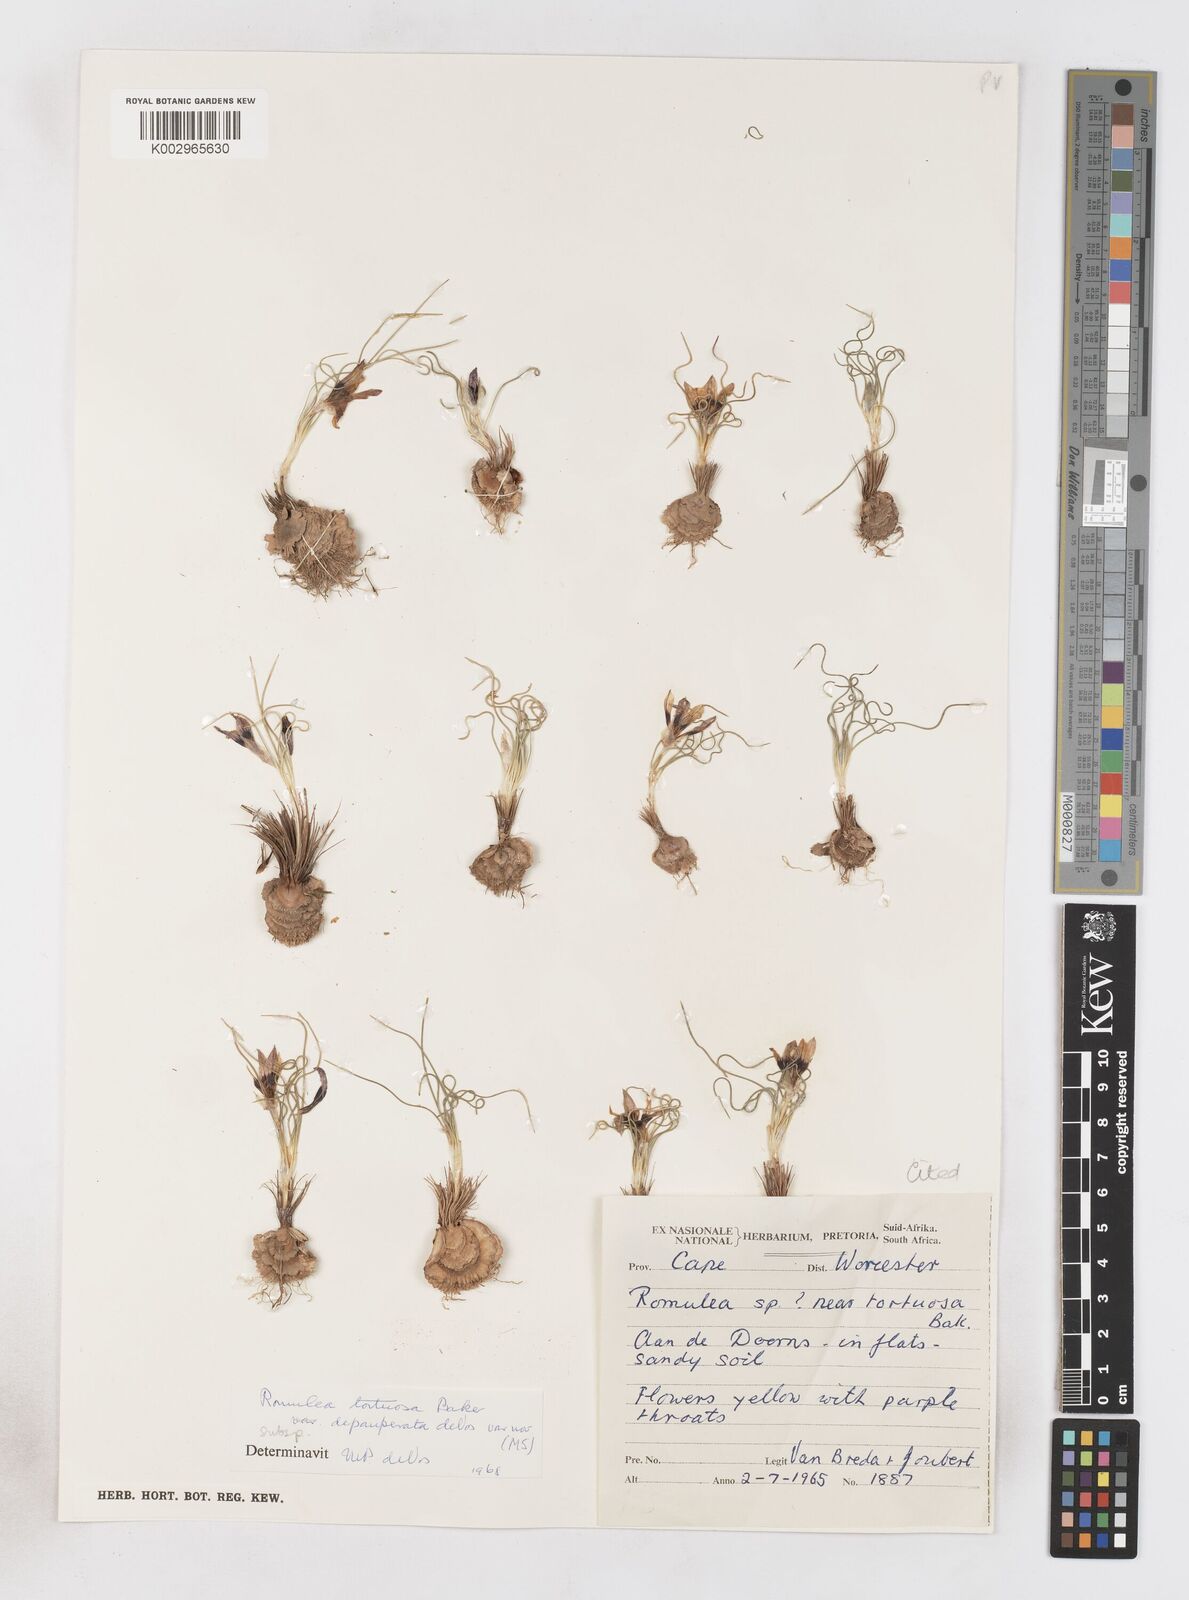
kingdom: Plantae
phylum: Tracheophyta
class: Liliopsida
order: Asparagales
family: Iridaceae
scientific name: Iridaceae
